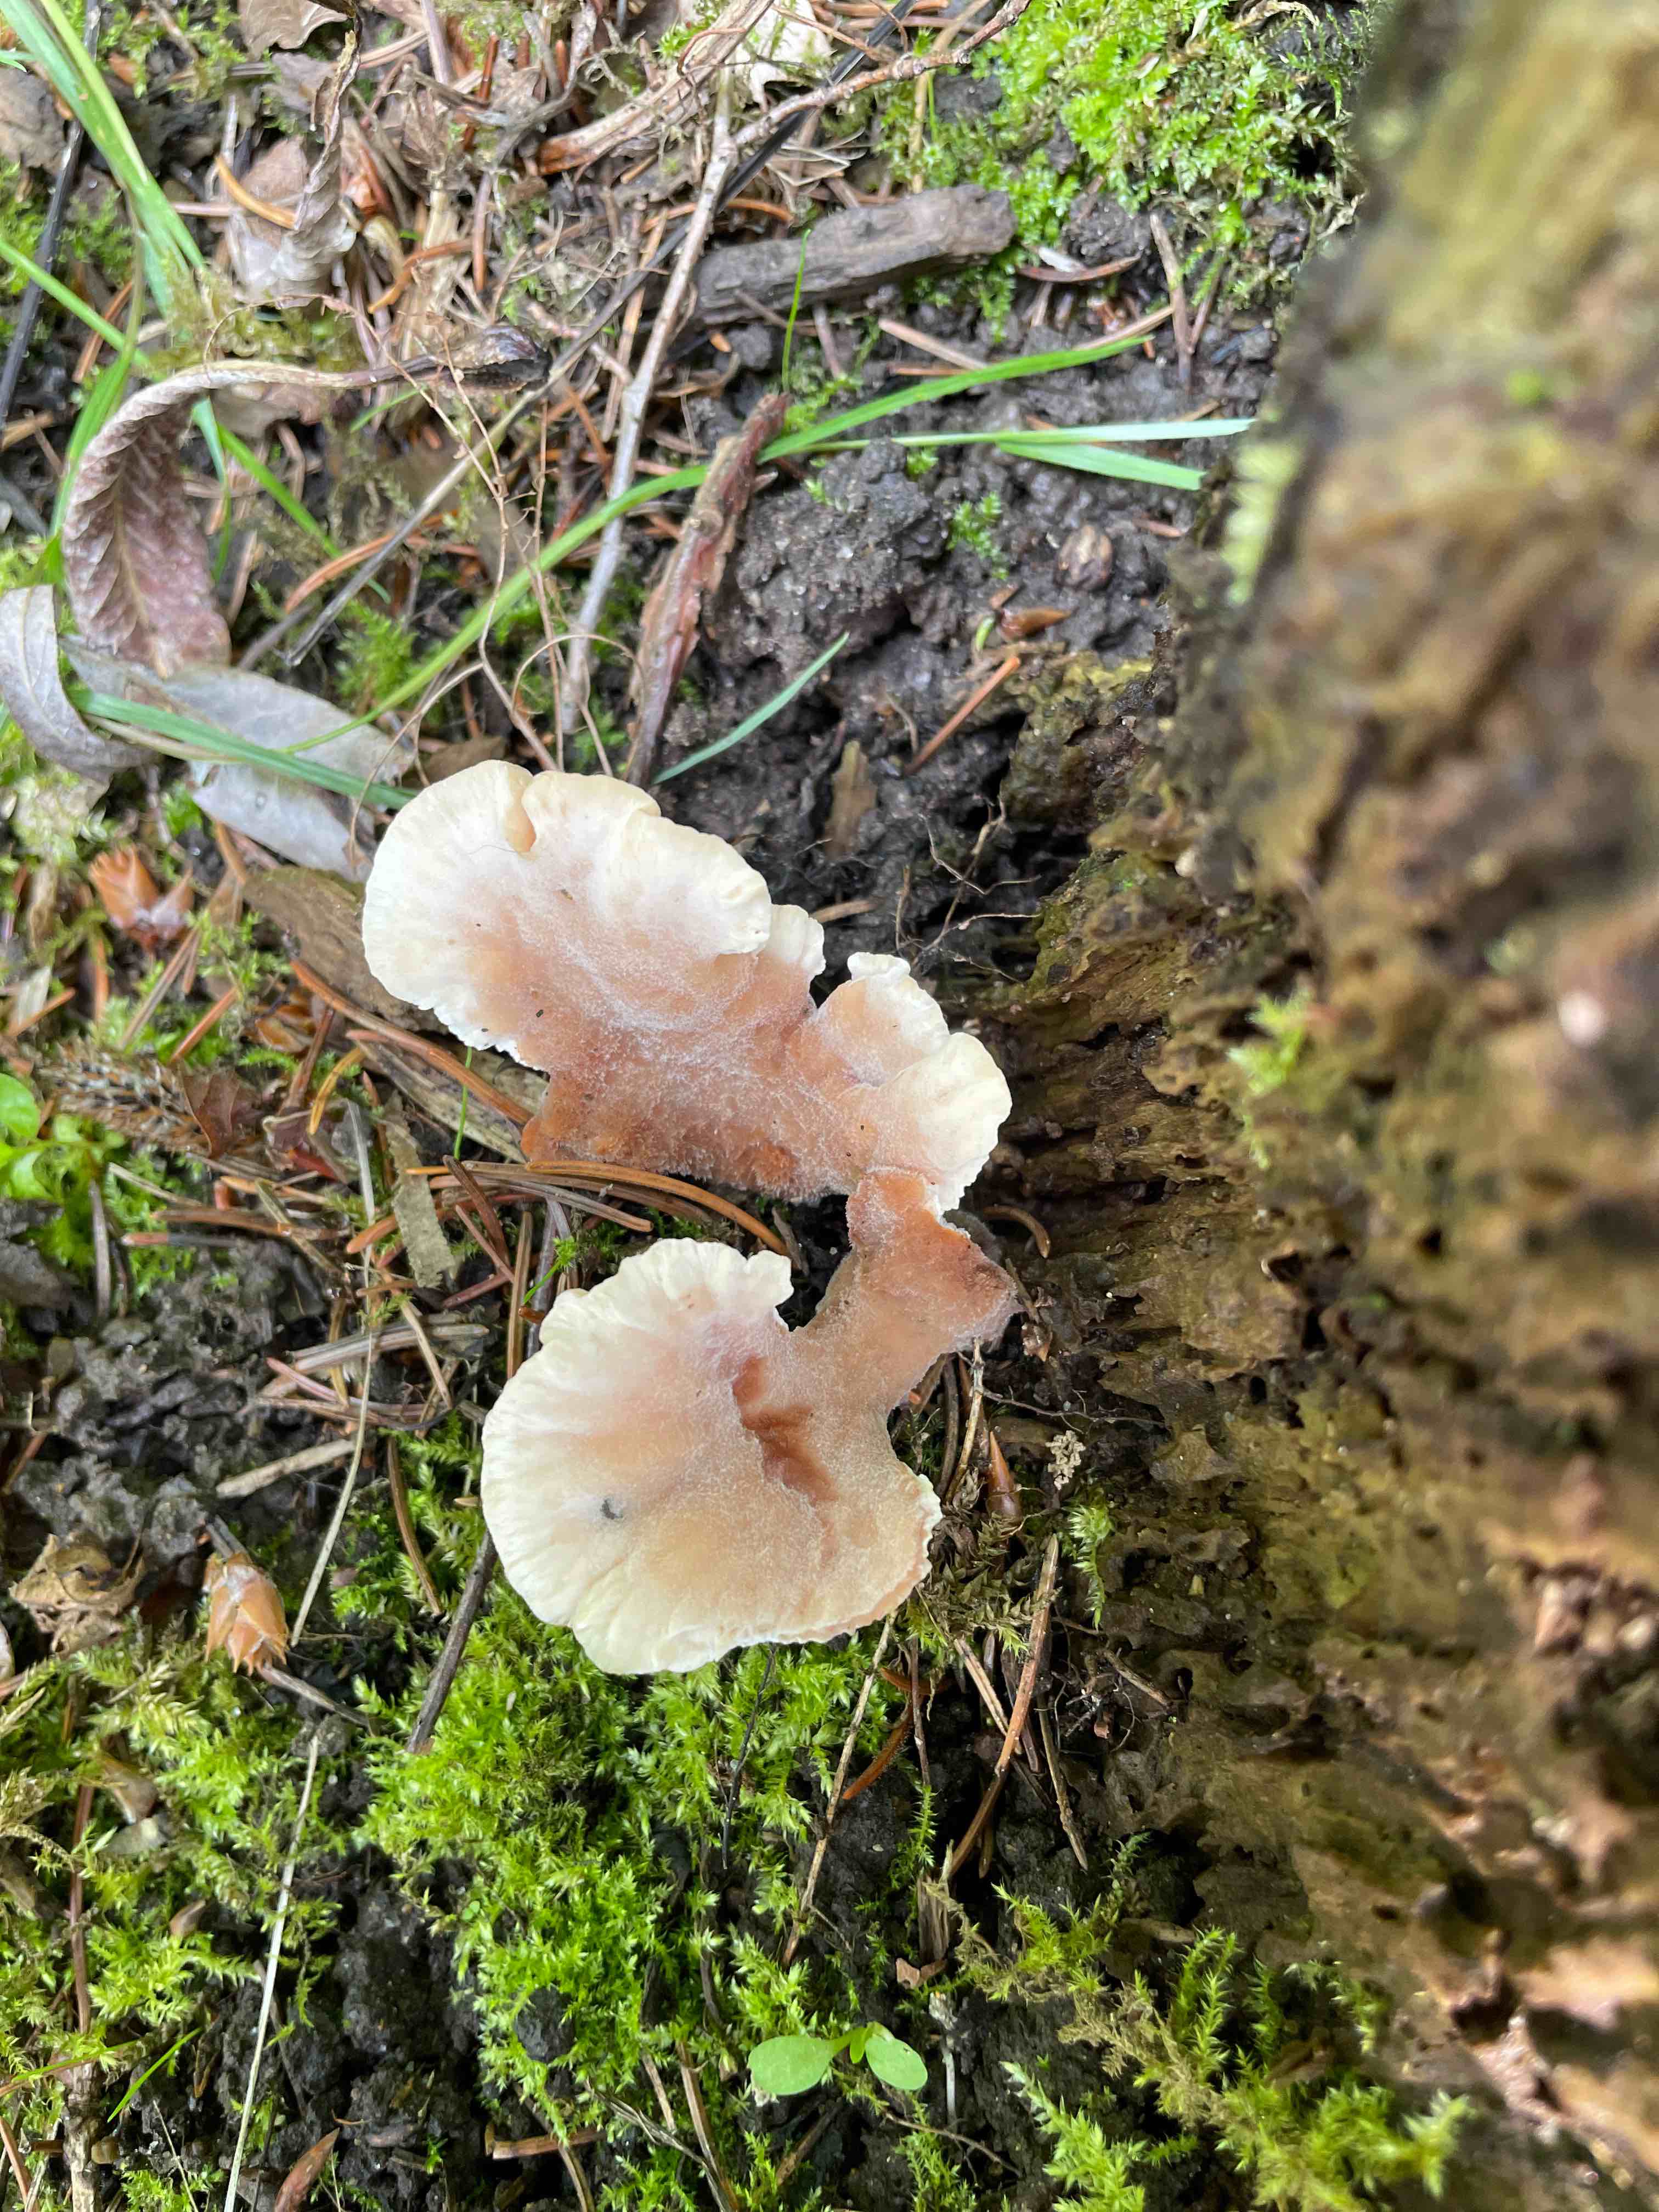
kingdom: Fungi
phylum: Basidiomycota
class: Agaricomycetes
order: Polyporales
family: Podoscyphaceae
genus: Abortiporus
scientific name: Abortiporus biennis
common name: rødmende pjalteporesvamp
